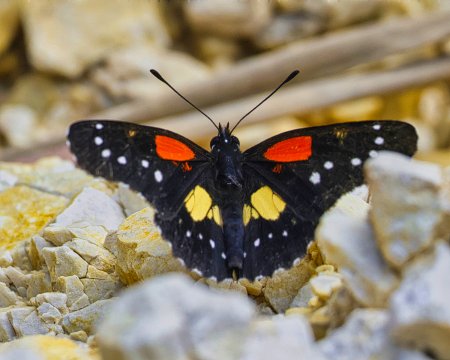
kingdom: Animalia
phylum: Arthropoda
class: Insecta
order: Lepidoptera
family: Nymphalidae
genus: Chlosyne
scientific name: Chlosyne gaudialis
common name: Gaudy Checkerspot
